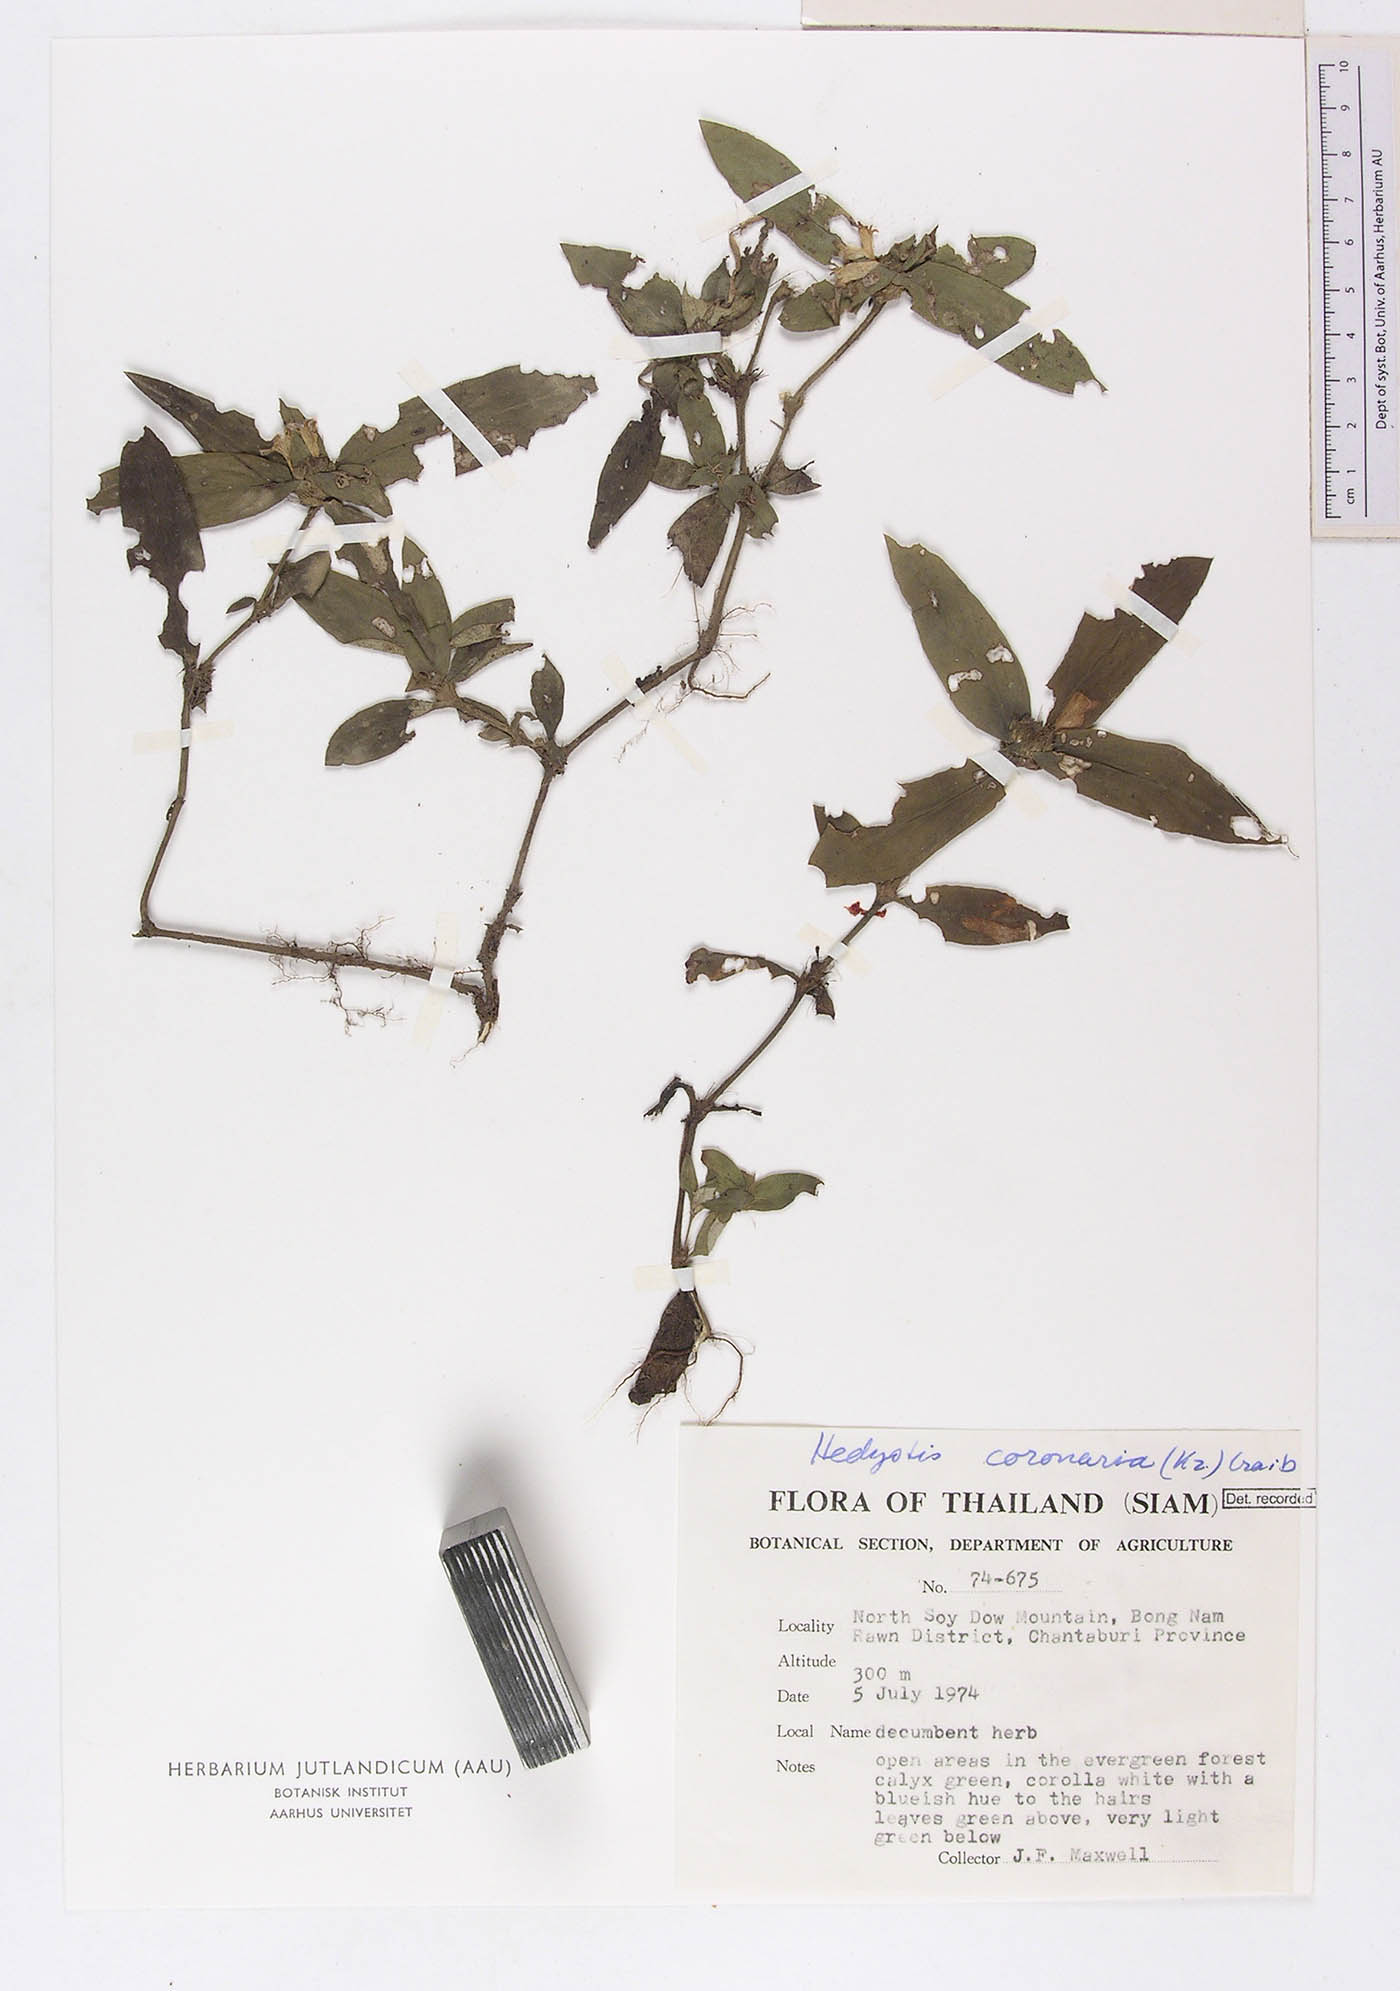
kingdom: Plantae
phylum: Tracheophyta
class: Magnoliopsida
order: Gentianales
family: Rubiaceae
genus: Involucrella
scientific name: Involucrella coronaria
